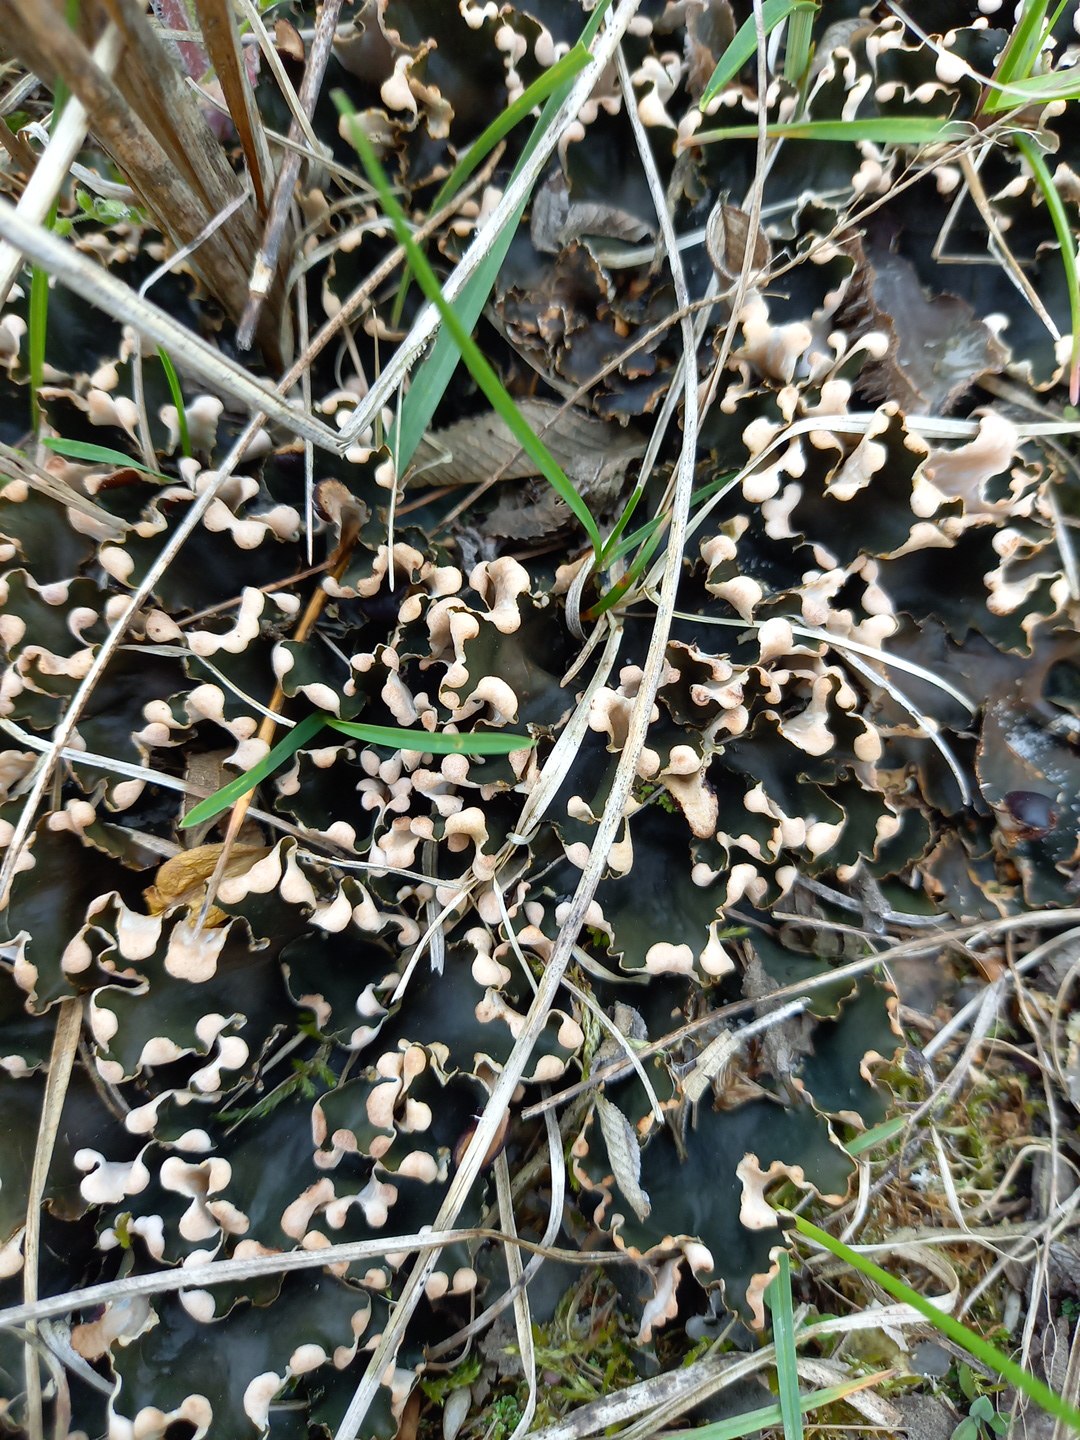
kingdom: Fungi
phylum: Ascomycota
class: Lecanoromycetes
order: Peltigerales
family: Peltigeraceae
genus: Peltigera
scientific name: Peltigera
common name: skjoldlav
